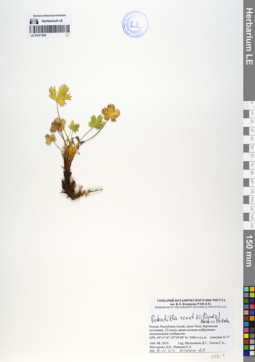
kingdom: Plantae
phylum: Tracheophyta
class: Magnoliopsida
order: Rosales
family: Rosaceae
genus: Potentilla
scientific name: Potentilla crantzii
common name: Alpine cinquefoil
